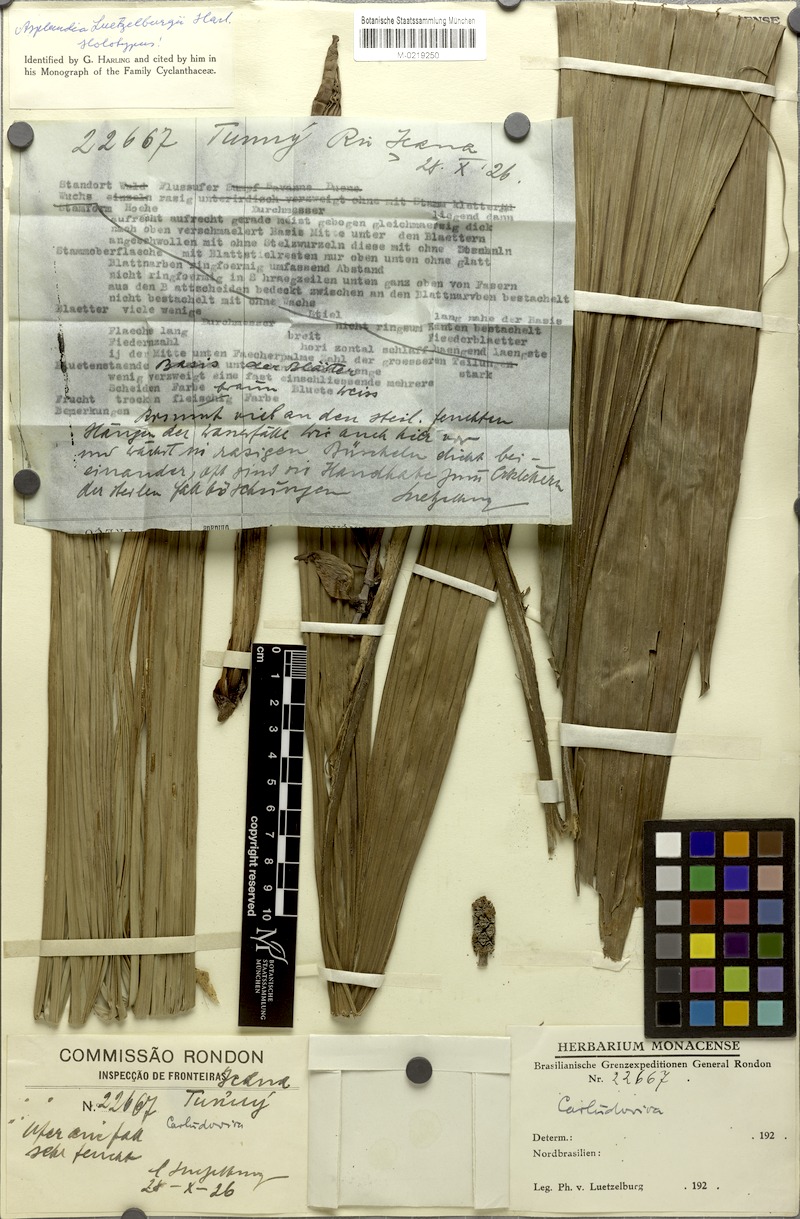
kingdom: Plantae
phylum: Tracheophyta
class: Liliopsida
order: Pandanales
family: Cyclanthaceae
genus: Asplundia
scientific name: Asplundia luetzelburgii
